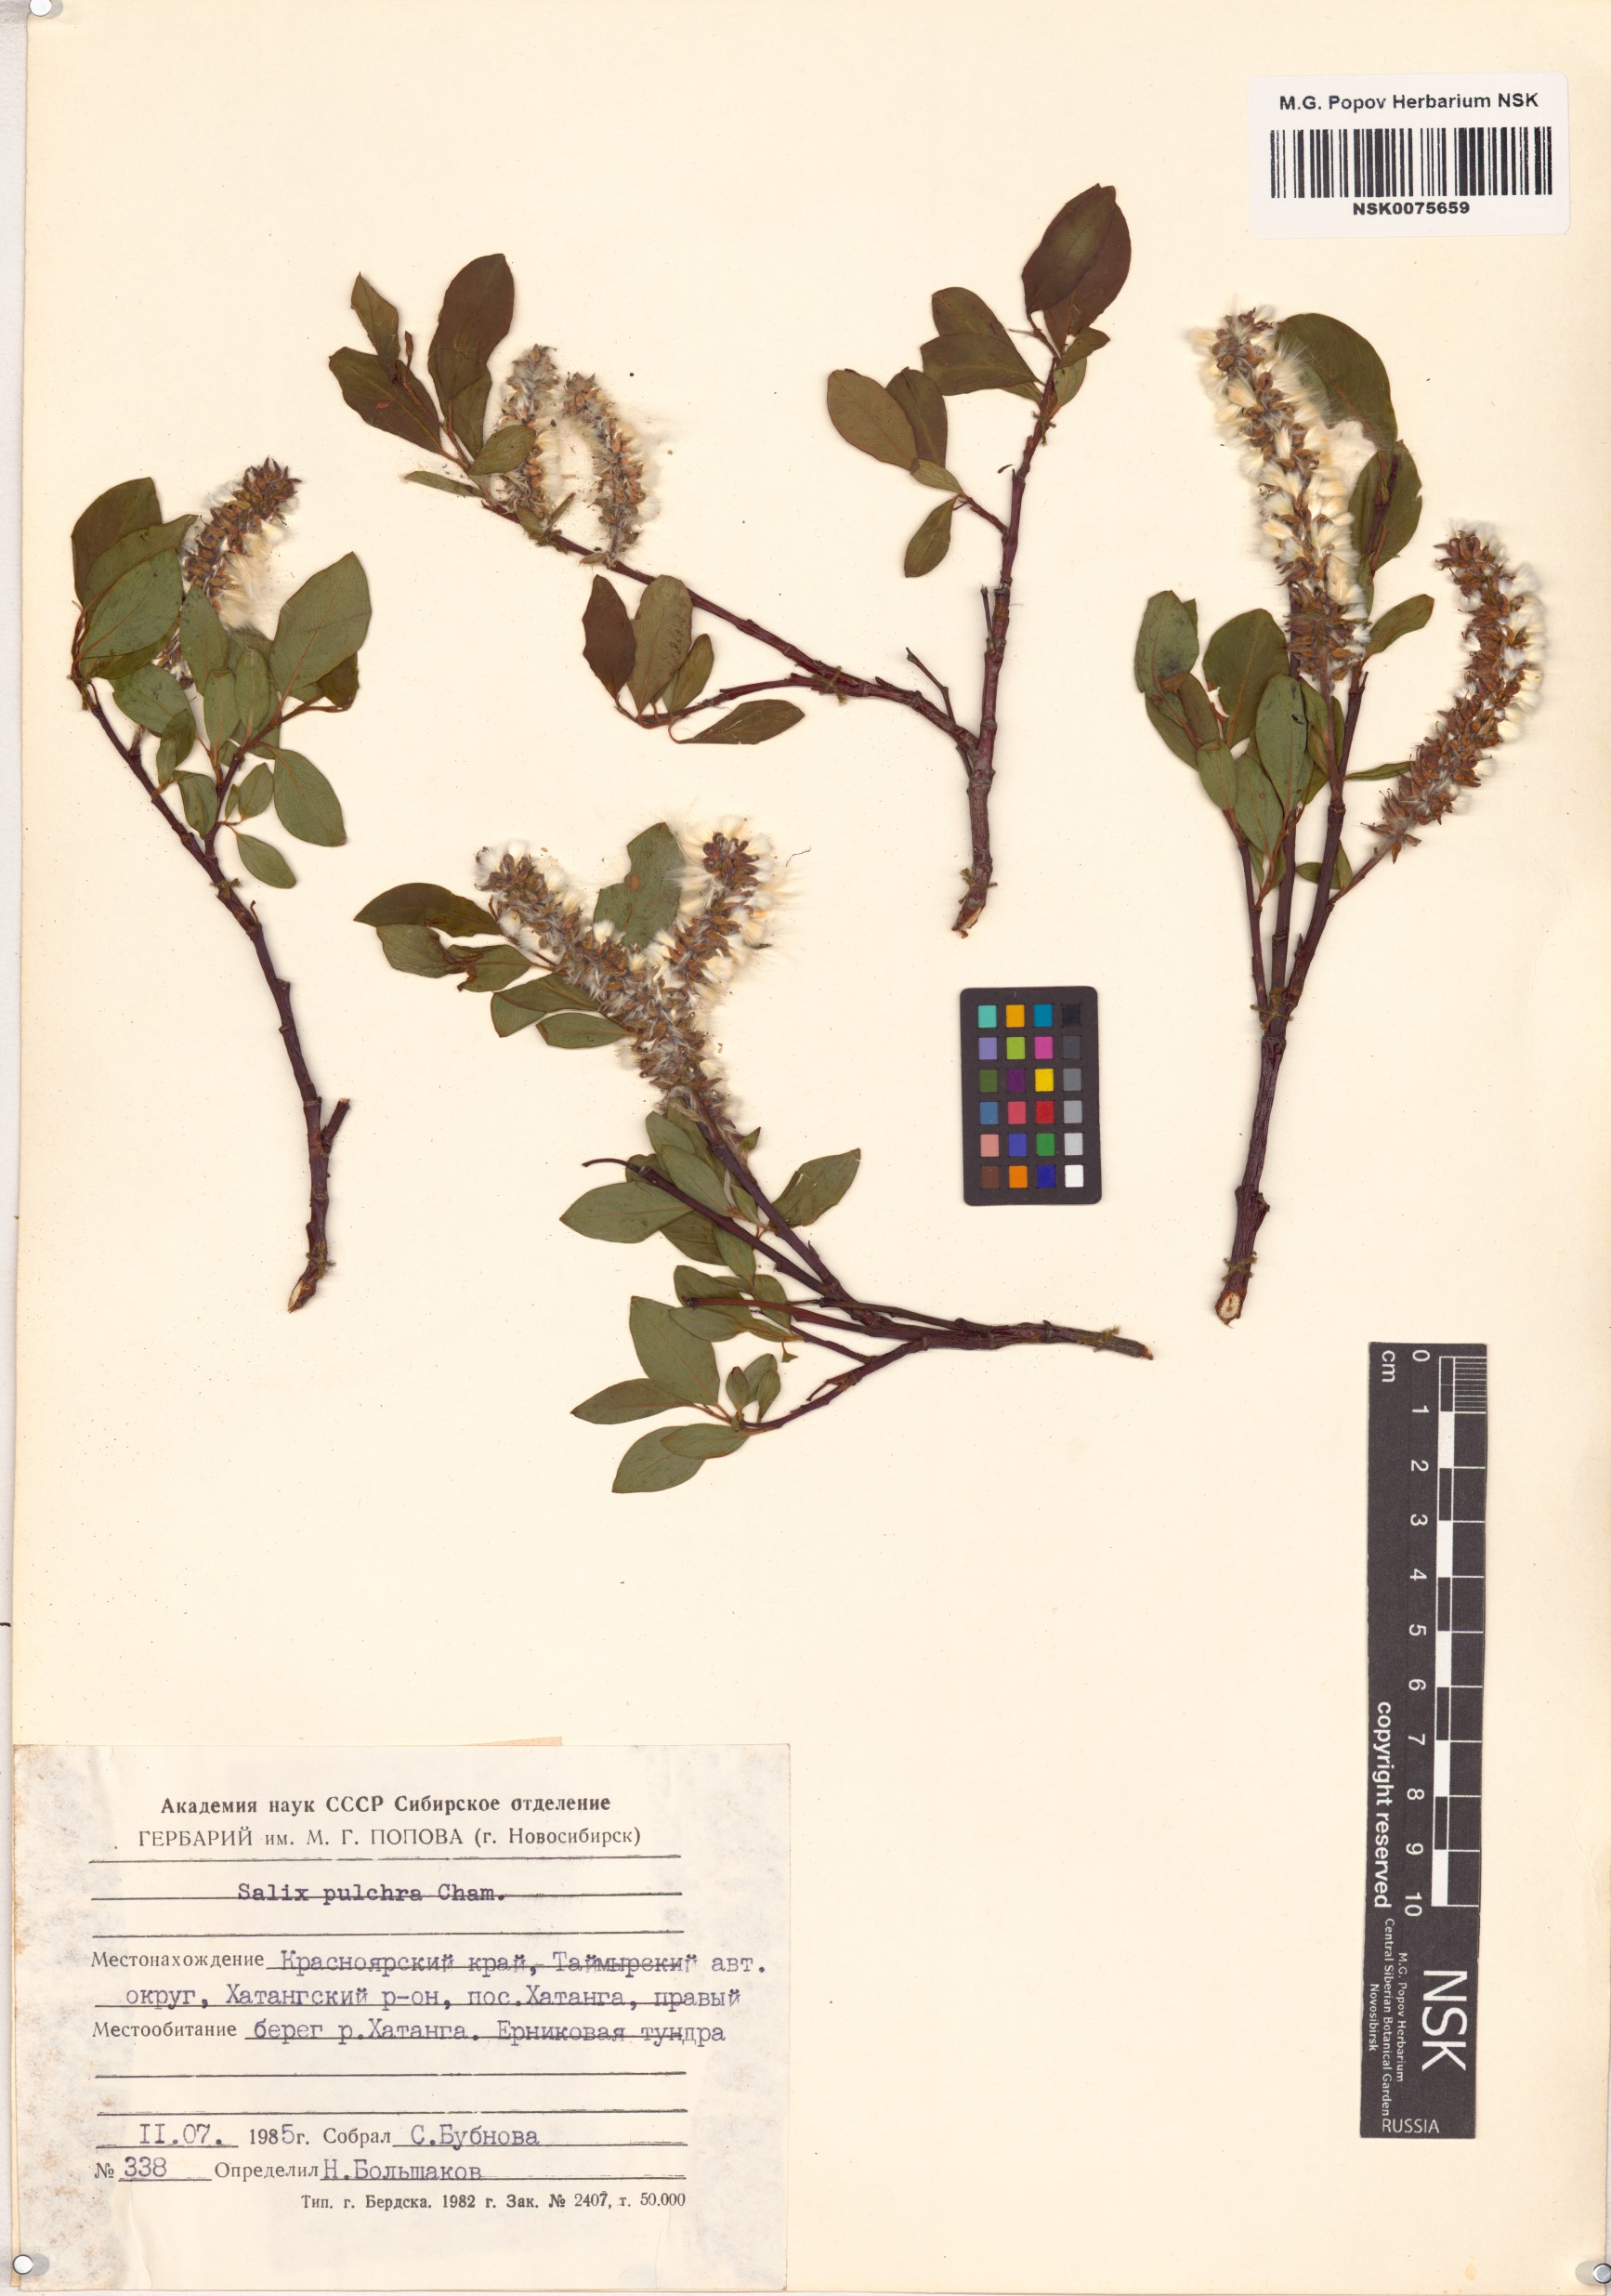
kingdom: Plantae
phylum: Tracheophyta
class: Magnoliopsida
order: Malpighiales
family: Salicaceae
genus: Salix
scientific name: Salix pulchra
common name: Diamond-leaved willow
